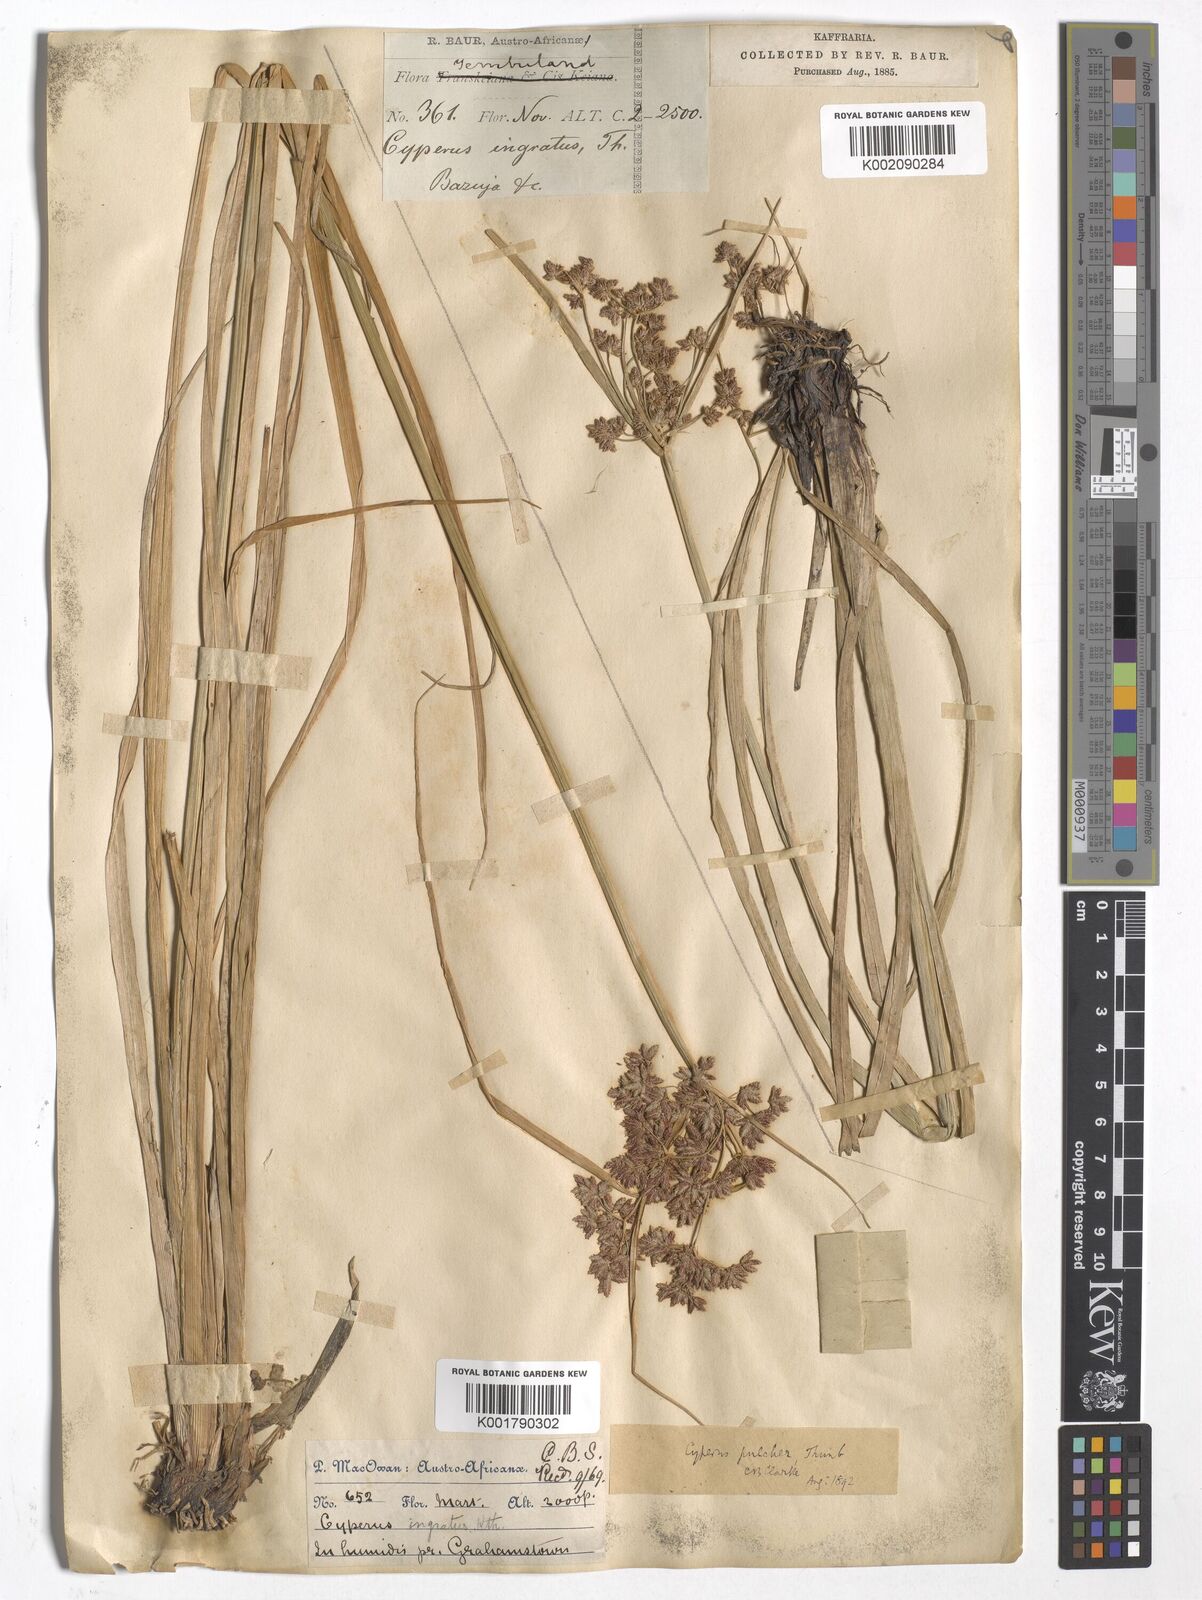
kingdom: Plantae
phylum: Tracheophyta
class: Liliopsida
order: Poales
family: Cyperaceae
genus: Cyperus
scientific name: Cyperus pulcher
